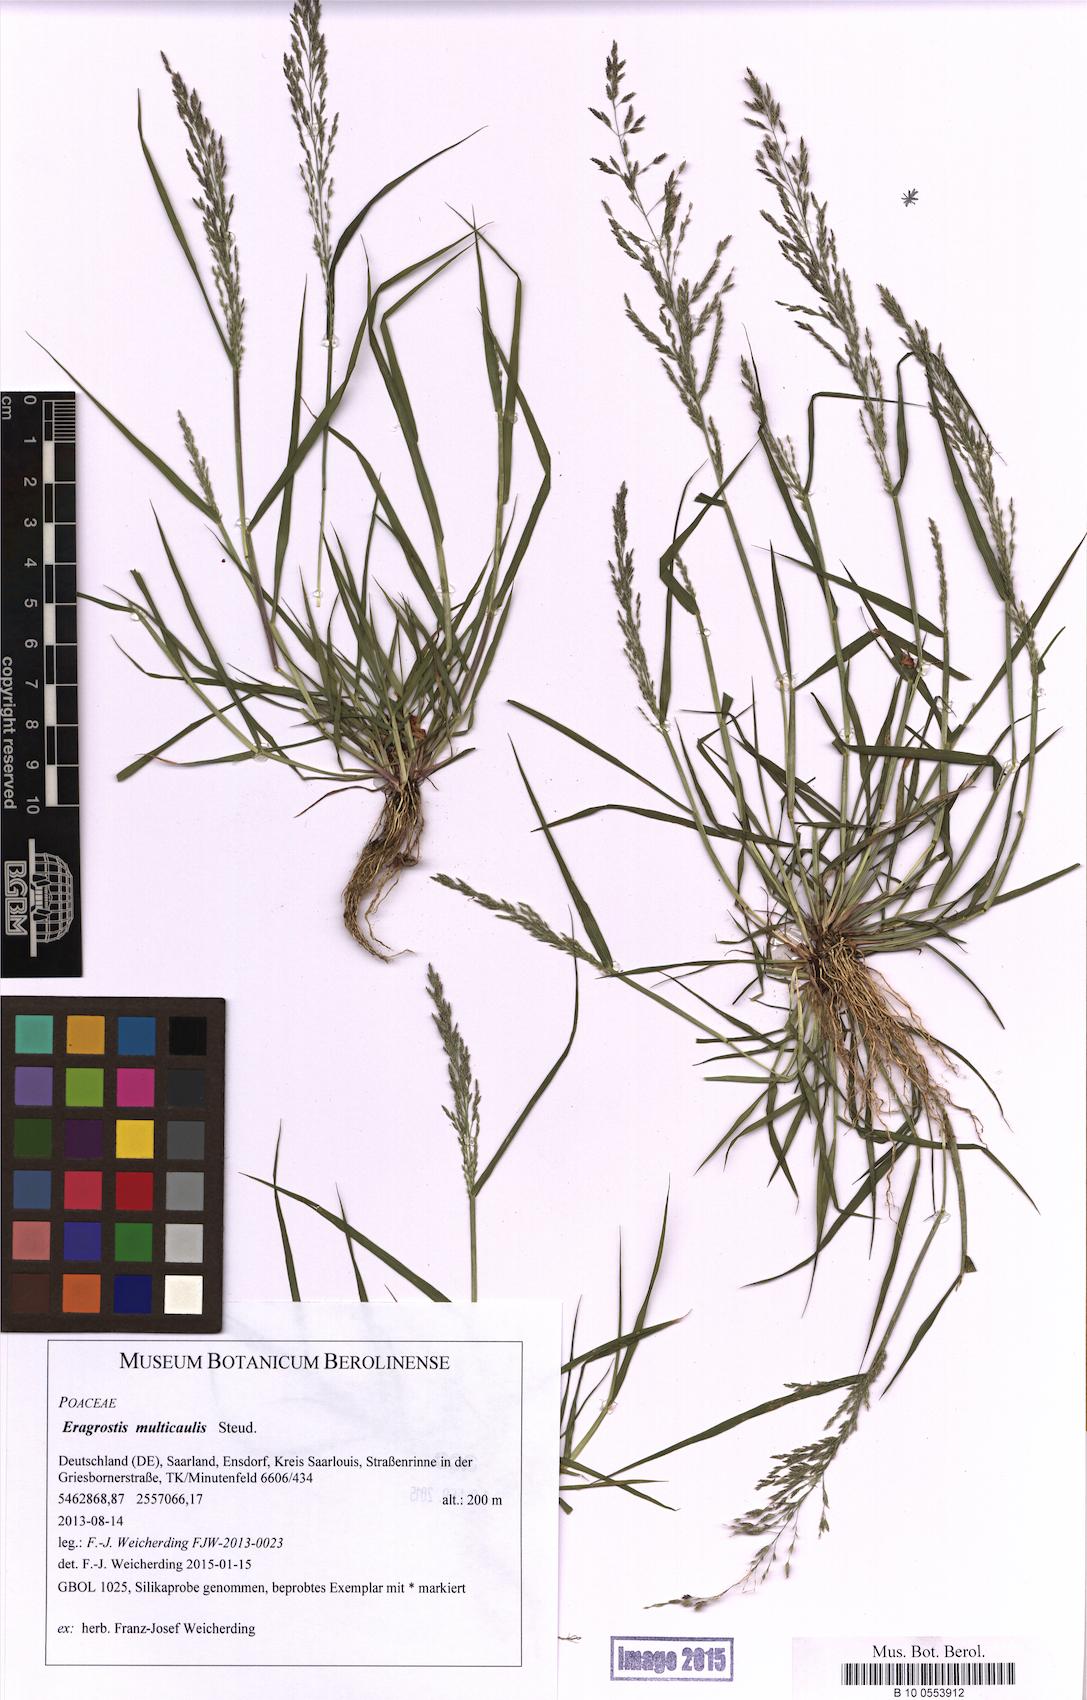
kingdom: Plantae
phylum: Tracheophyta
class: Liliopsida
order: Poales
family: Poaceae
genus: Eragrostis
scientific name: Eragrostis multicaulis
